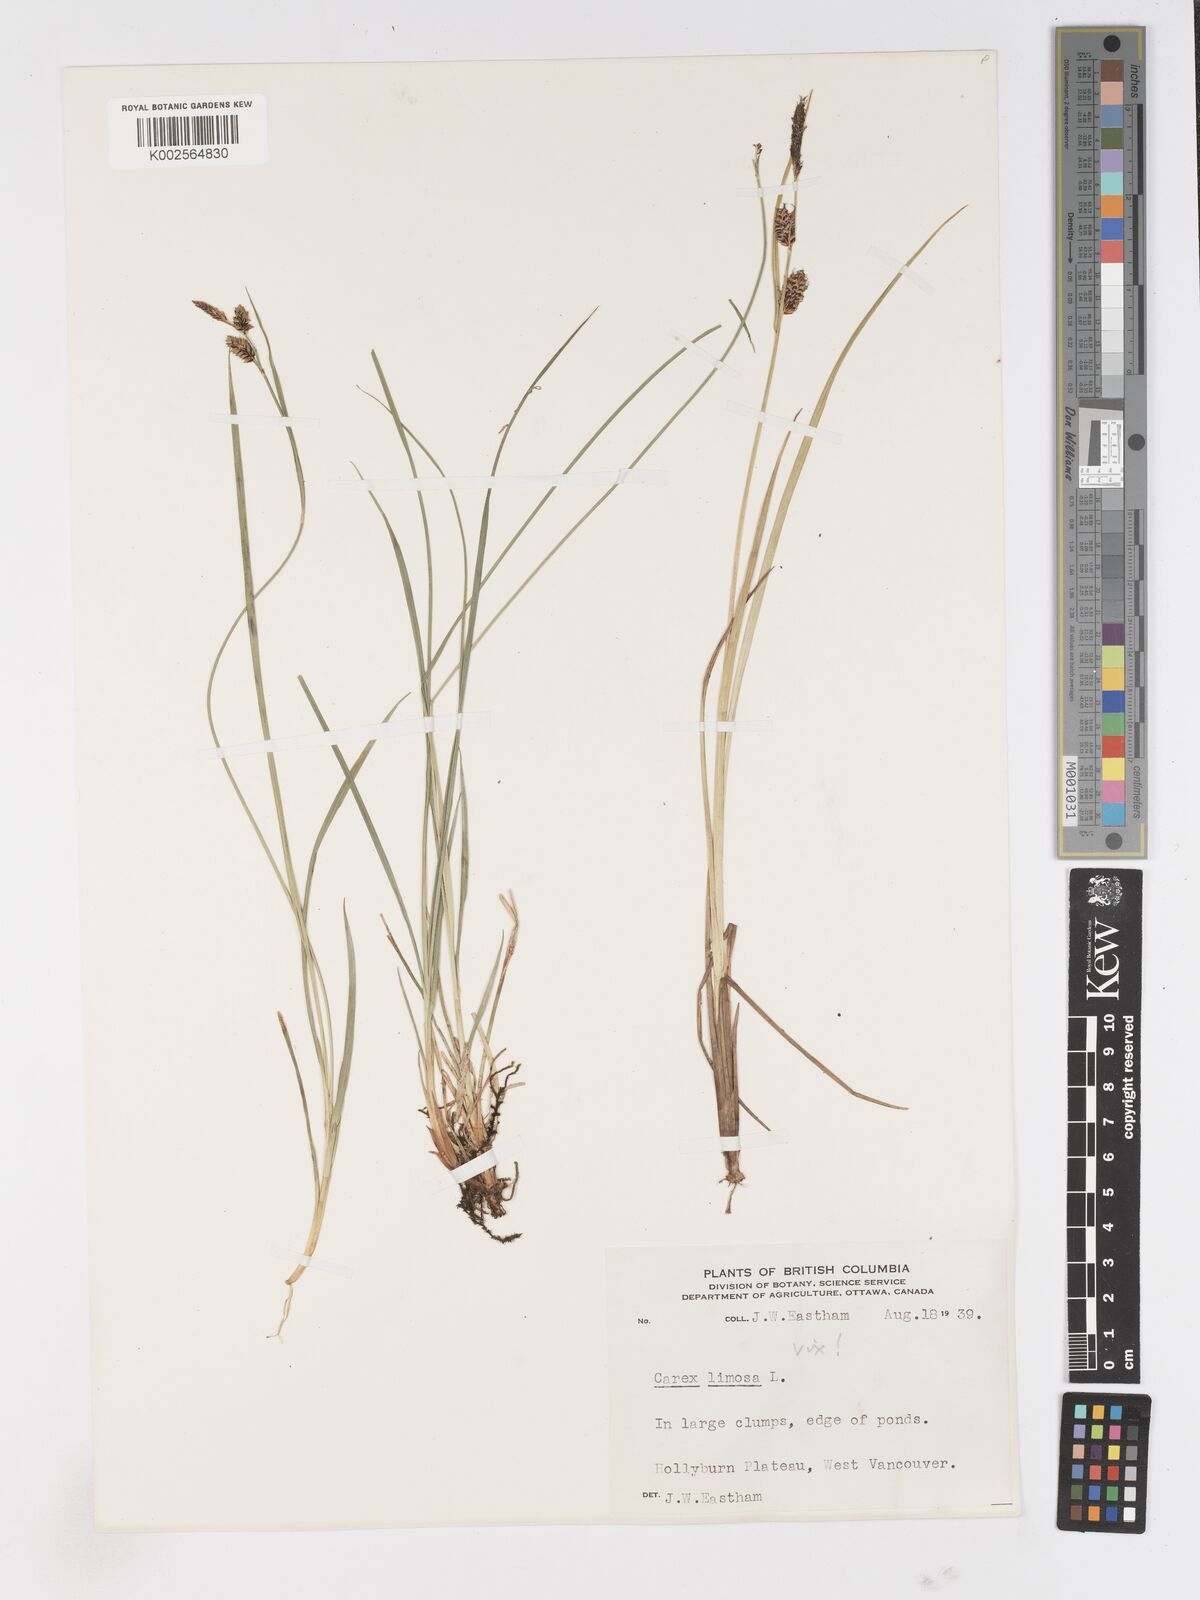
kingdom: Plantae
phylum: Tracheophyta
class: Liliopsida
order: Poales
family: Cyperaceae
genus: Carex
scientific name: Carex
